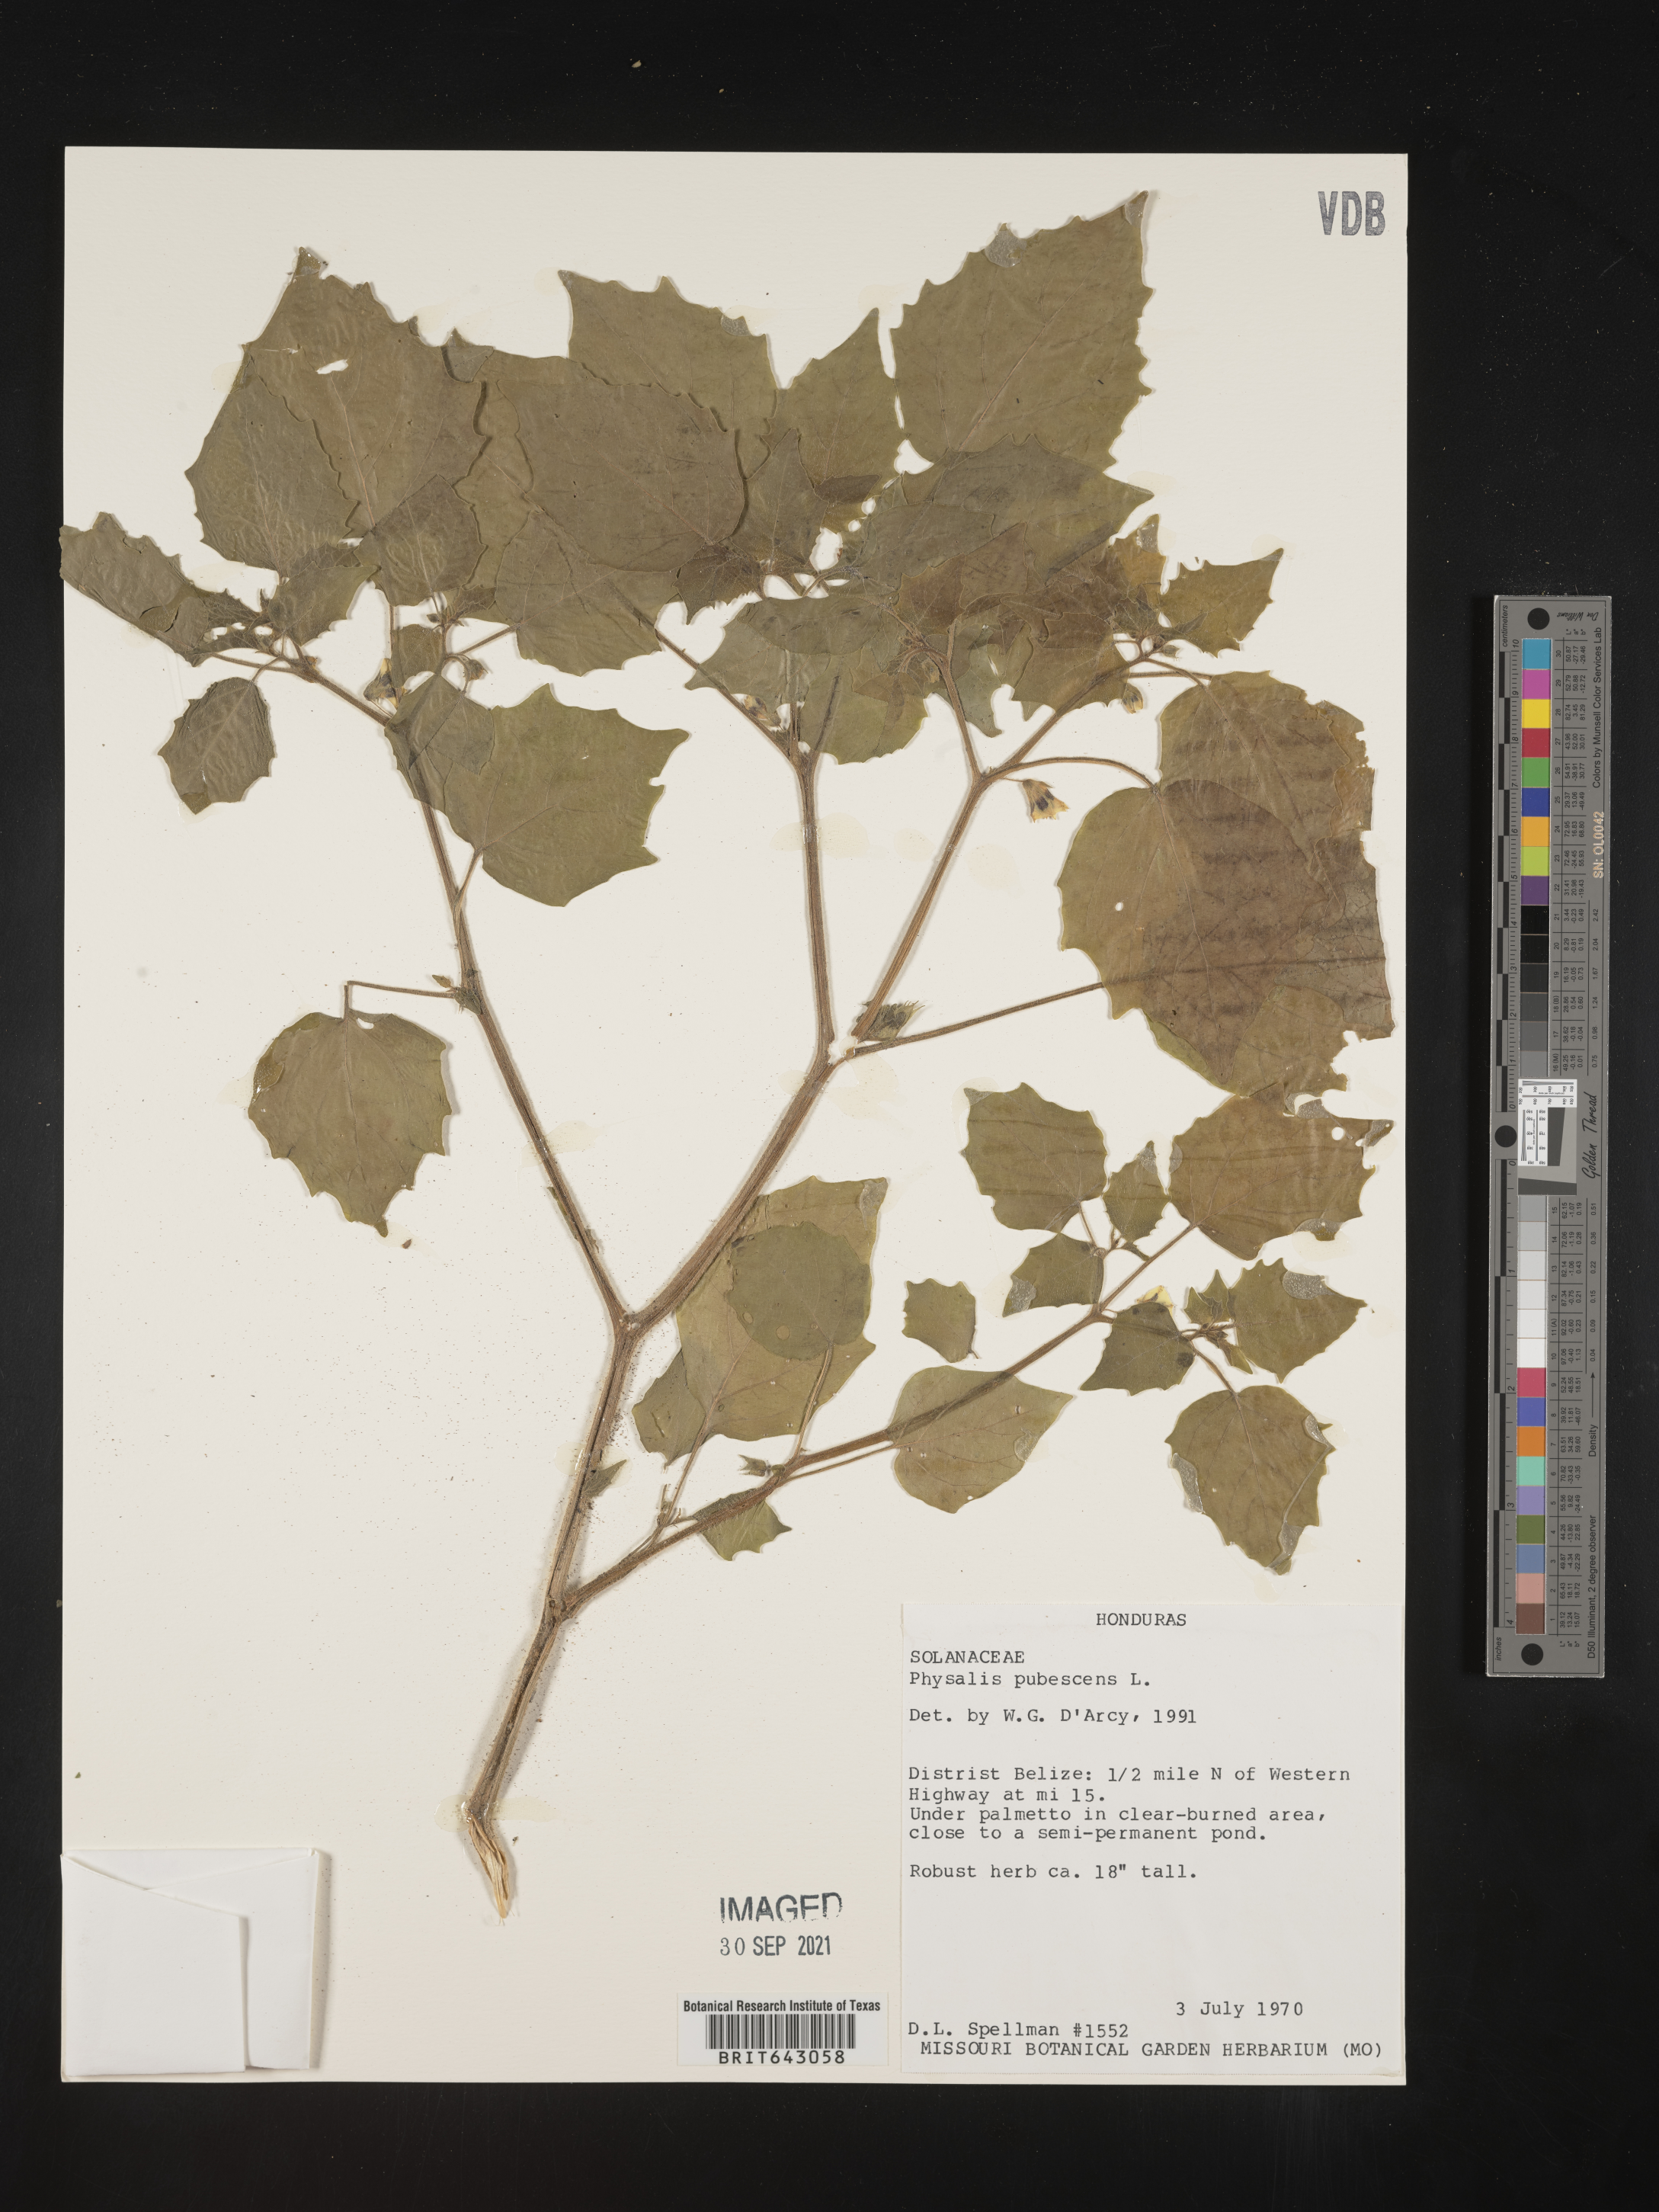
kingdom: Plantae
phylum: Tracheophyta
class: Magnoliopsida
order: Solanales
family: Solanaceae
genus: Physalis
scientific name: Physalis
